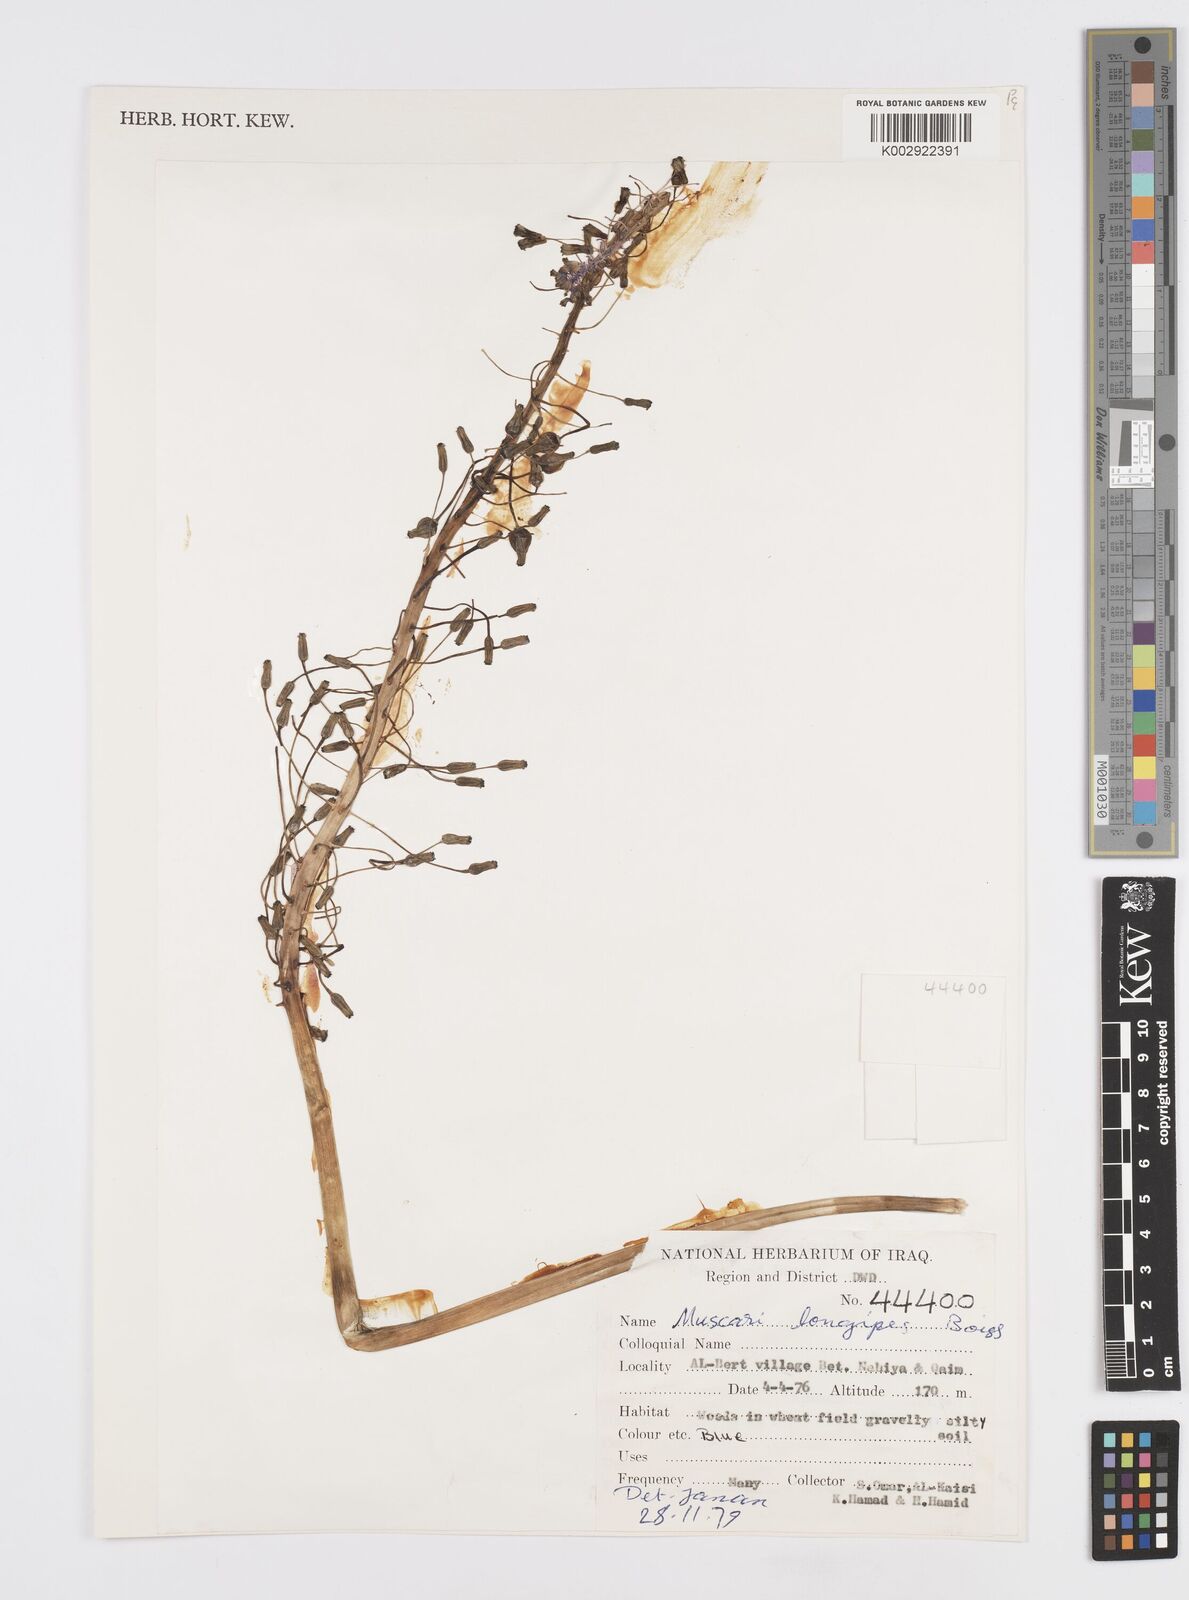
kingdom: Plantae
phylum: Tracheophyta
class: Liliopsida
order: Asparagales
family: Asparagaceae
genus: Muscari
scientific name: Muscari longipes
